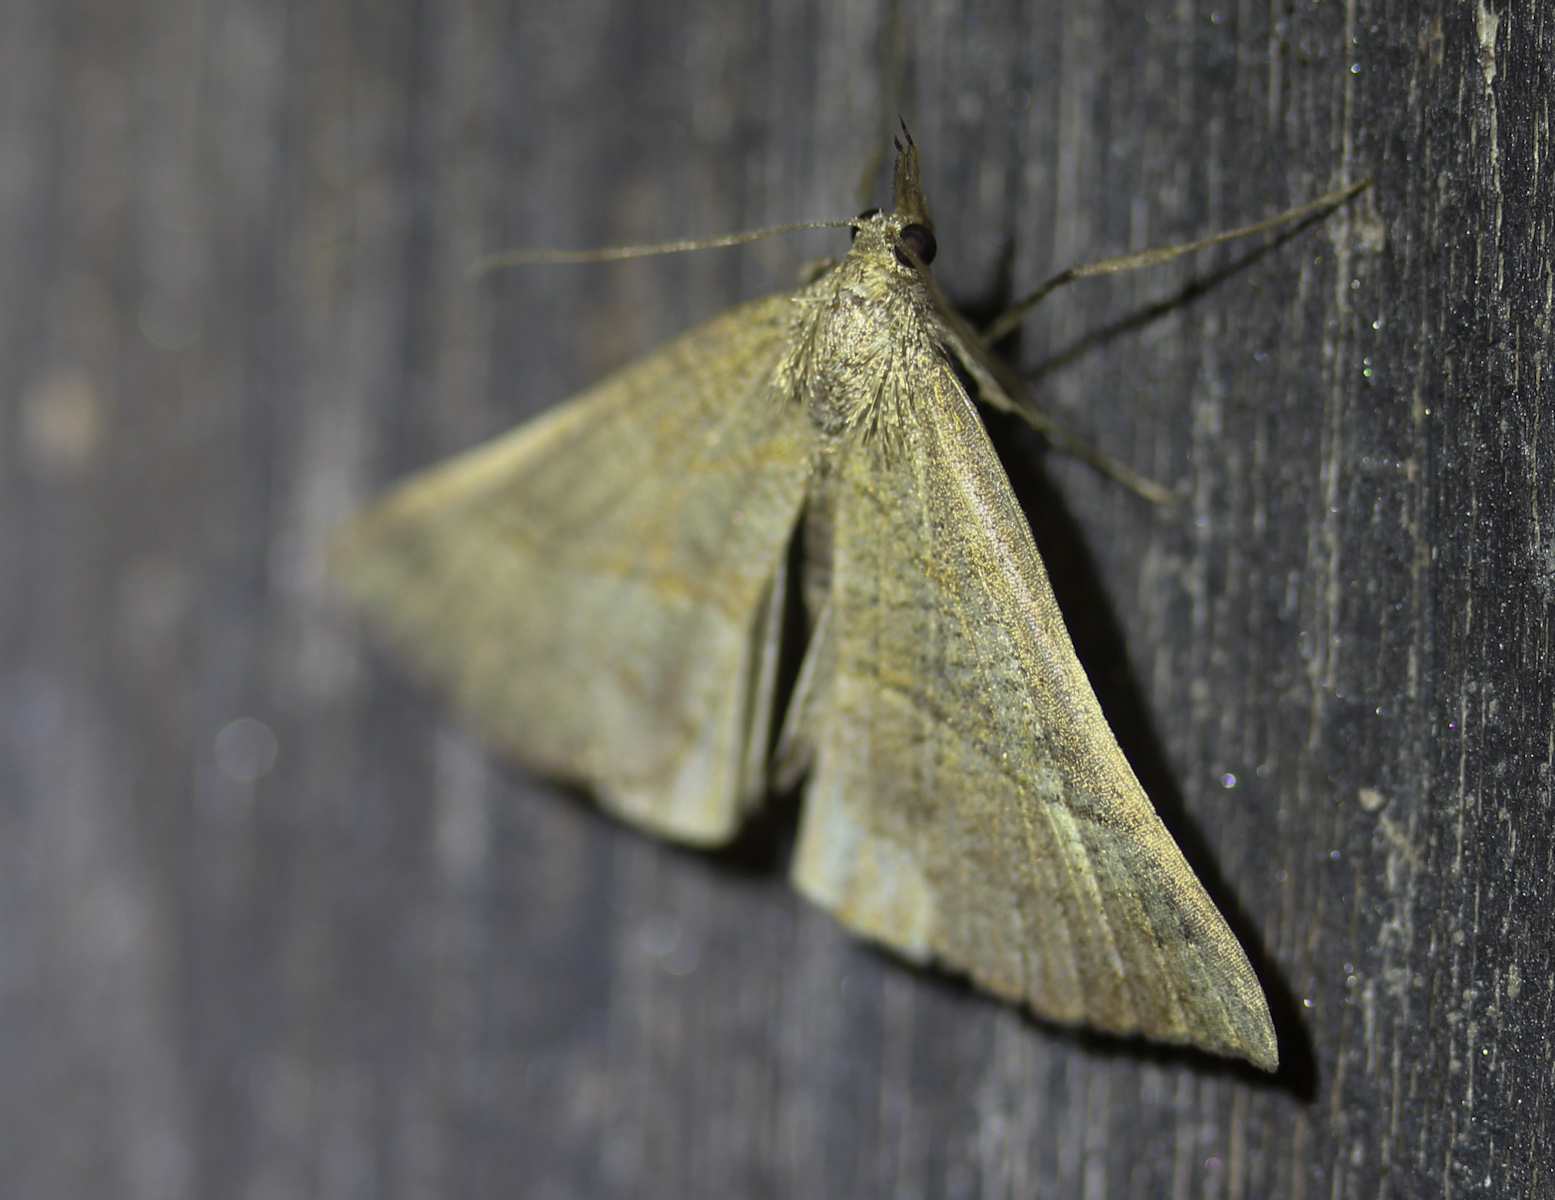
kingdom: Animalia
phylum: Arthropoda
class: Insecta
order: Lepidoptera
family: Erebidae
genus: Hypena
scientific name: Hypena proboscidalis
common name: Snout
